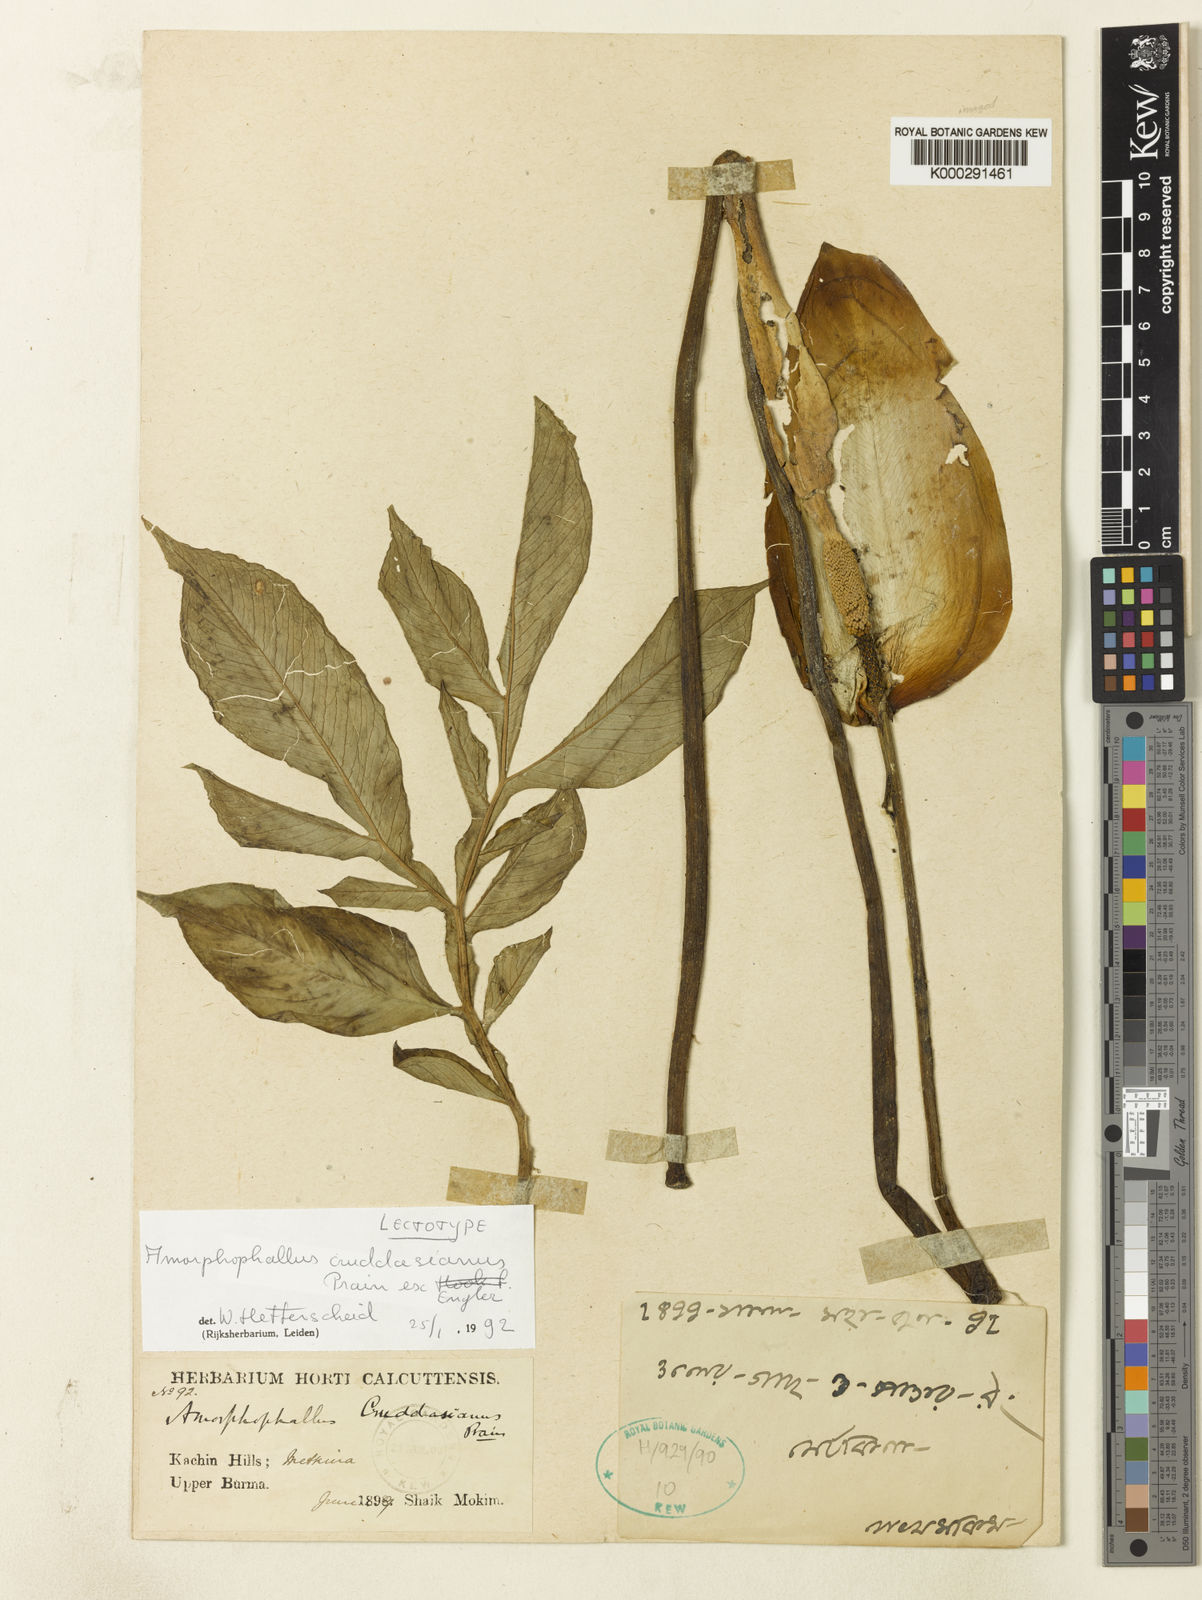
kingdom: Plantae
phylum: Tracheophyta
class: Liliopsida
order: Alismatales
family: Araceae
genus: Amorphophallus
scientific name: Amorphophallus krausei
